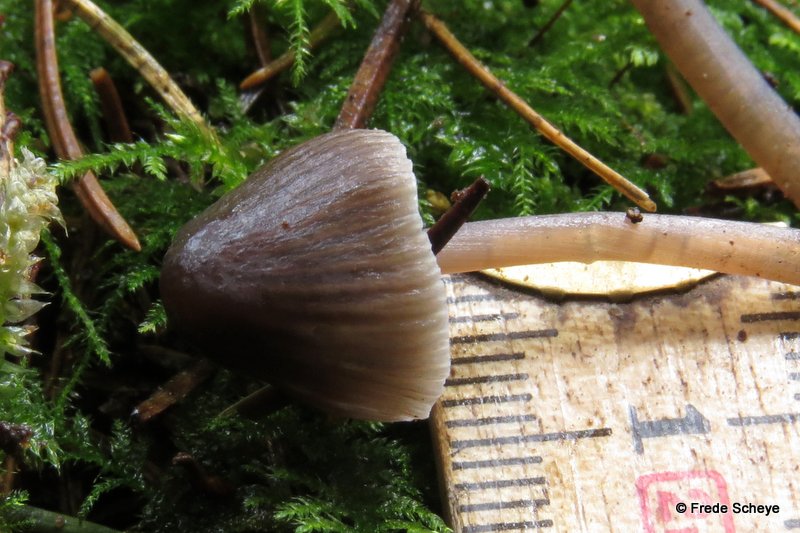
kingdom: Fungi
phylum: Basidiomycota
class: Agaricomycetes
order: Agaricales
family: Mycenaceae
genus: Mycena
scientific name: Mycena leptocephala
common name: klor-huesvamp
